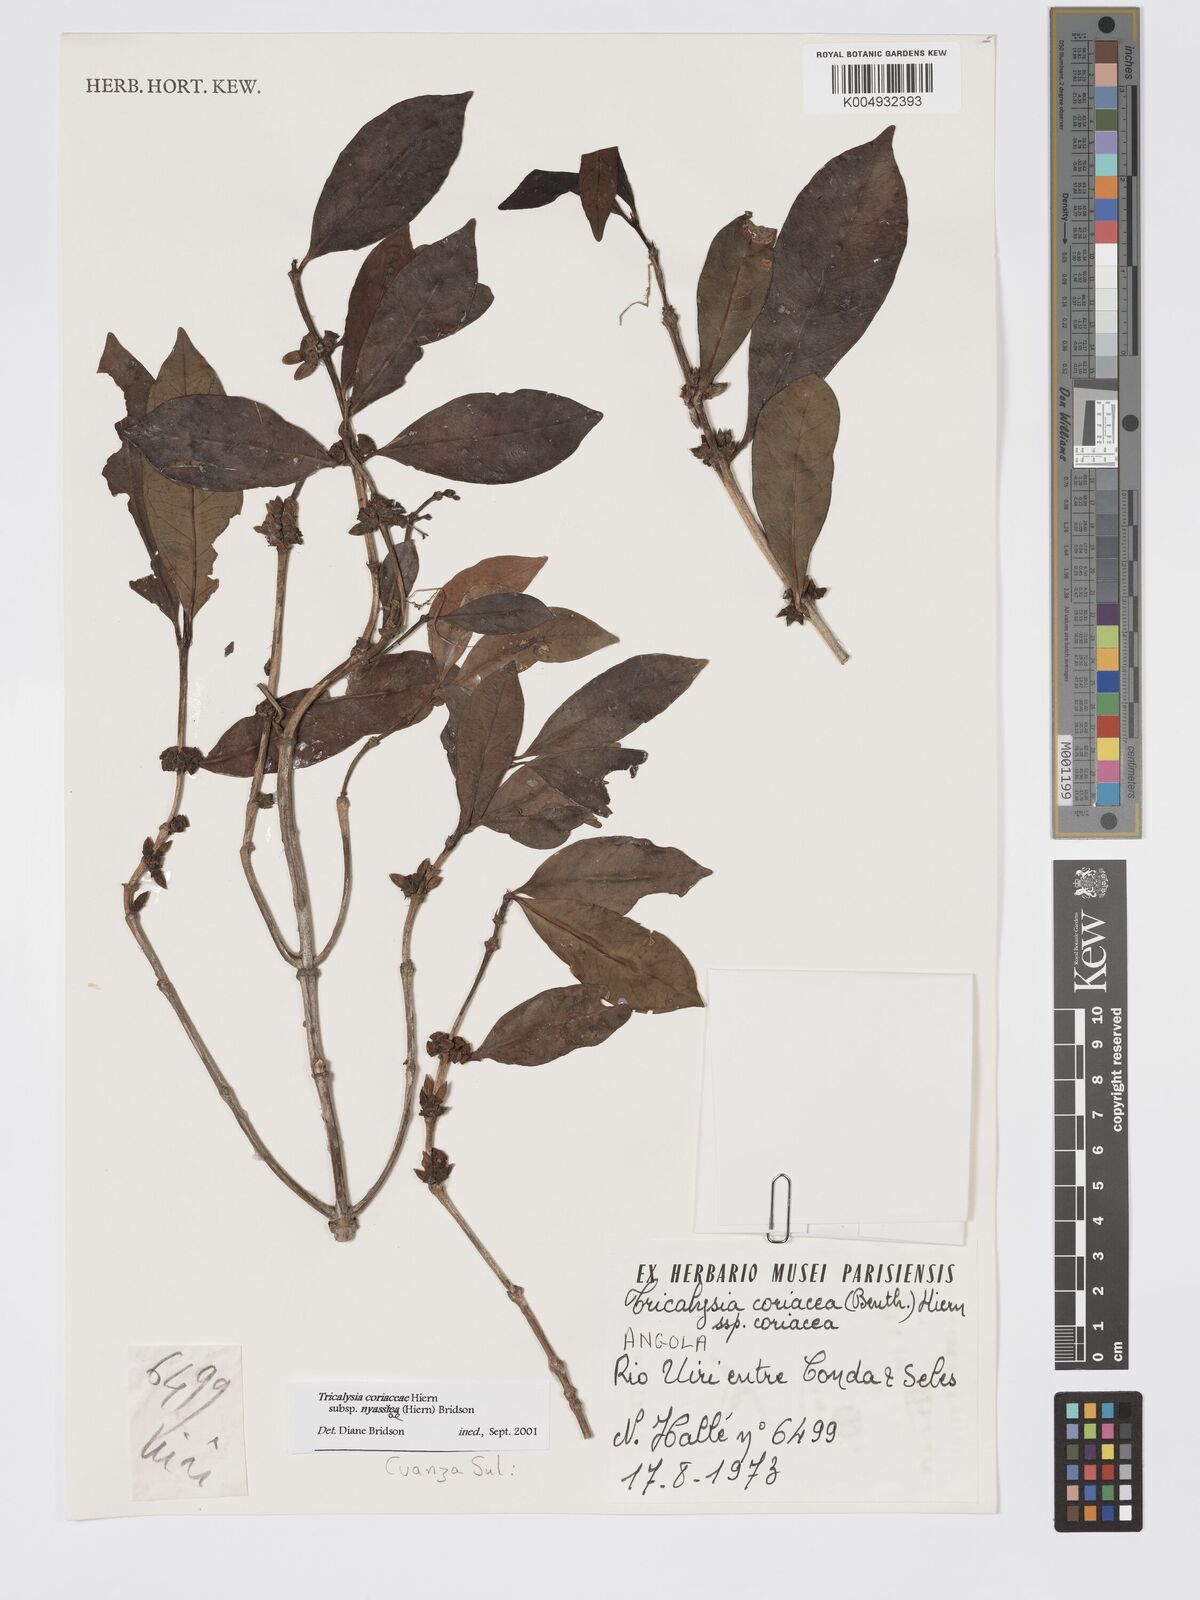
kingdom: Plantae
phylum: Tracheophyta
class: Magnoliopsida
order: Gentianales
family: Rubiaceae
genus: Tricalysia
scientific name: Tricalysia coriacea
